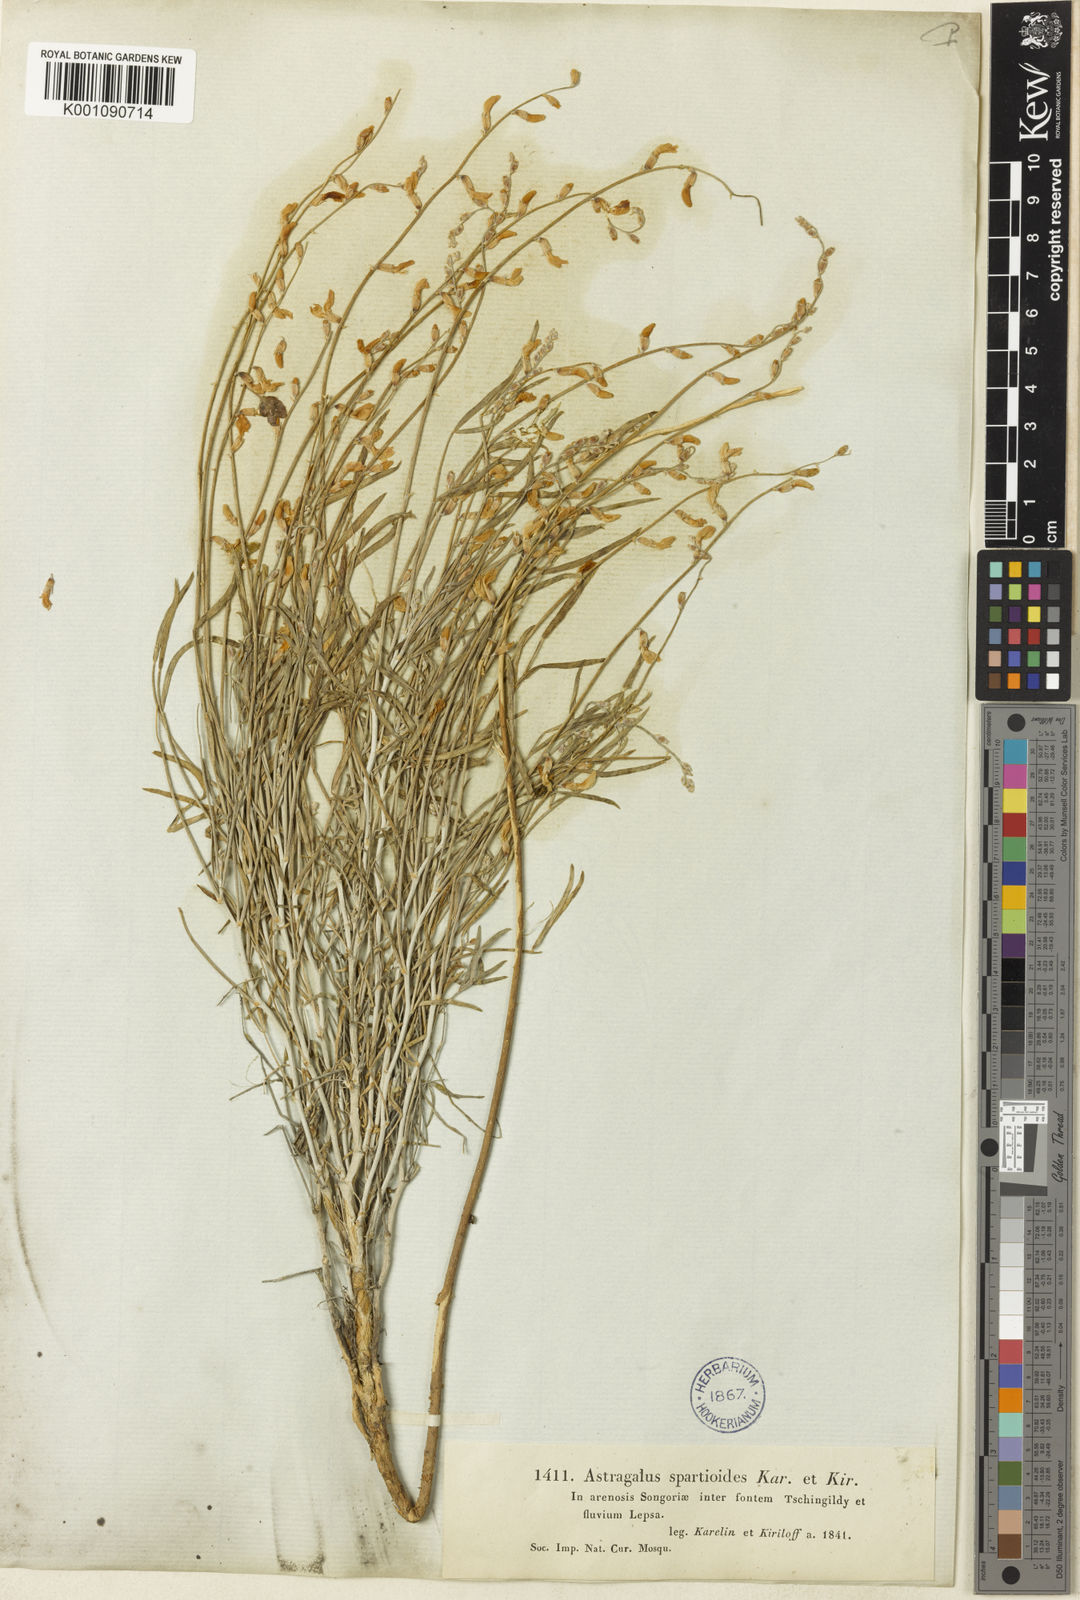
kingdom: Plantae
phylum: Tracheophyta
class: Magnoliopsida
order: Fabales
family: Fabaceae
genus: Astragalus
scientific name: Astragalus
